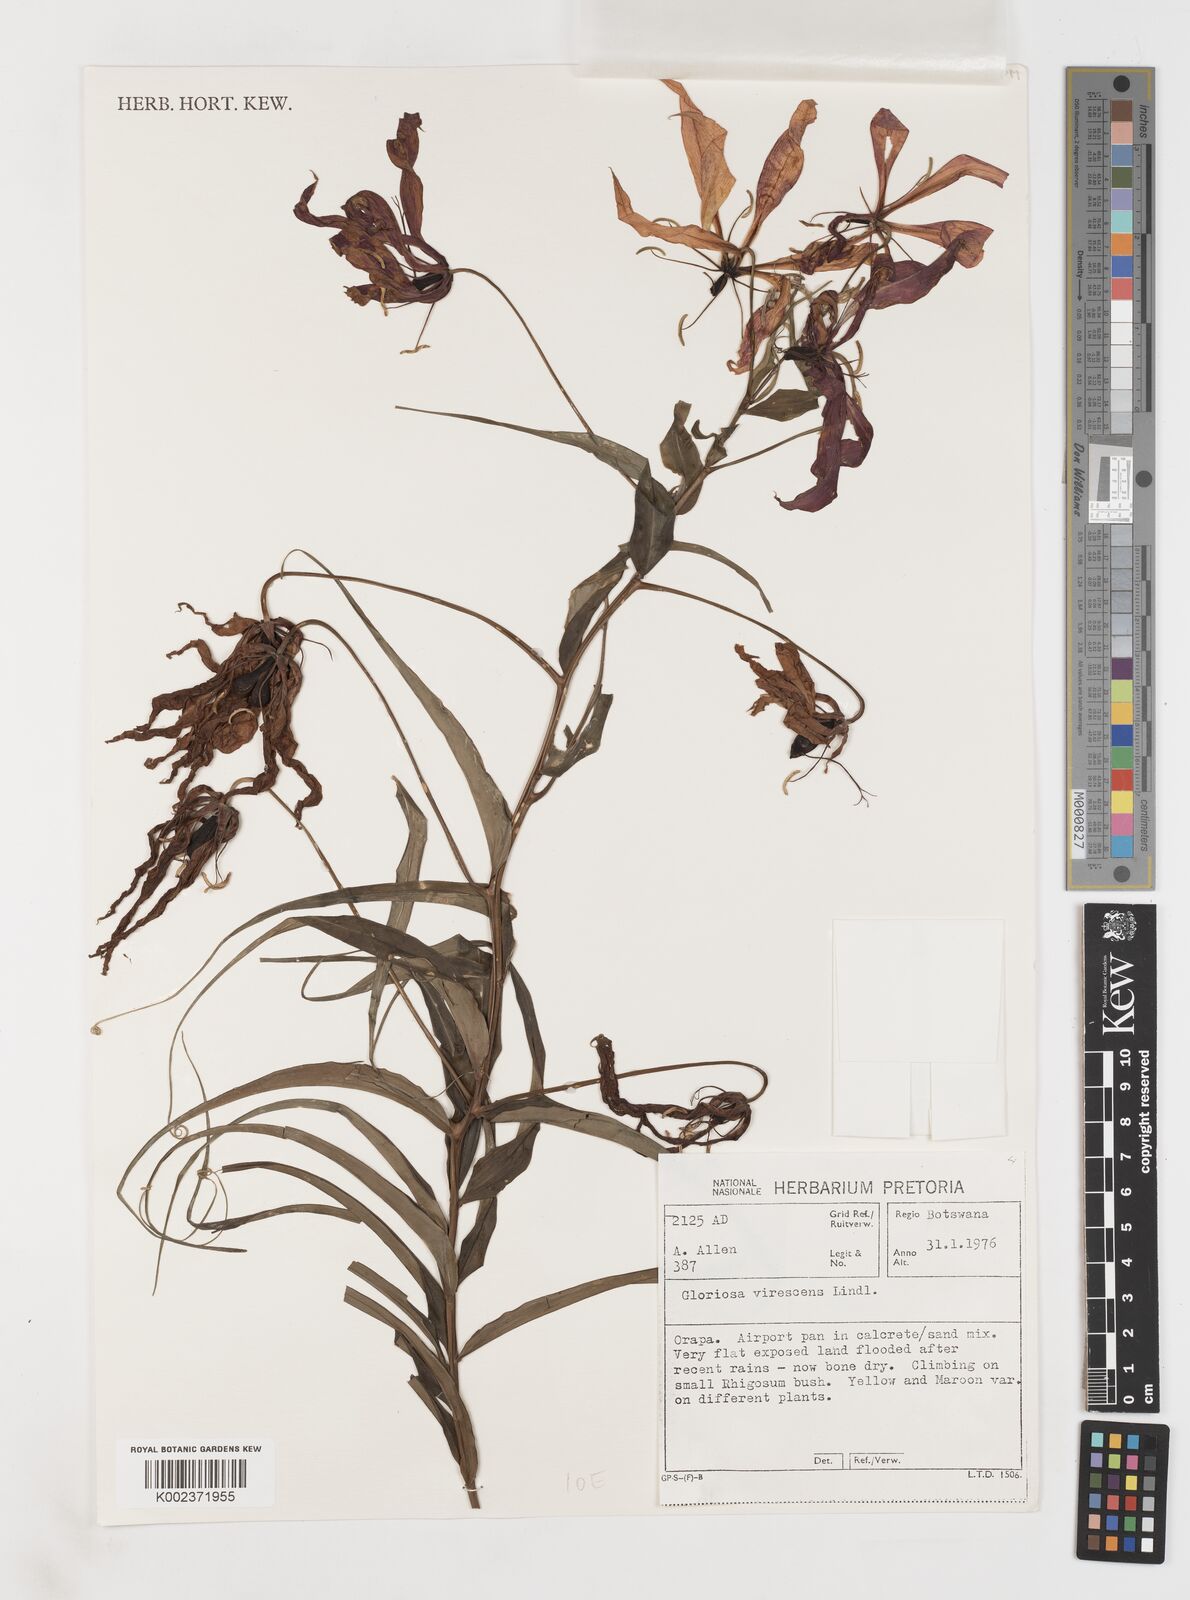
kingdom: Plantae
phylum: Tracheophyta
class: Liliopsida
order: Liliales
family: Colchicaceae
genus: Gloriosa
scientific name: Gloriosa simplex
